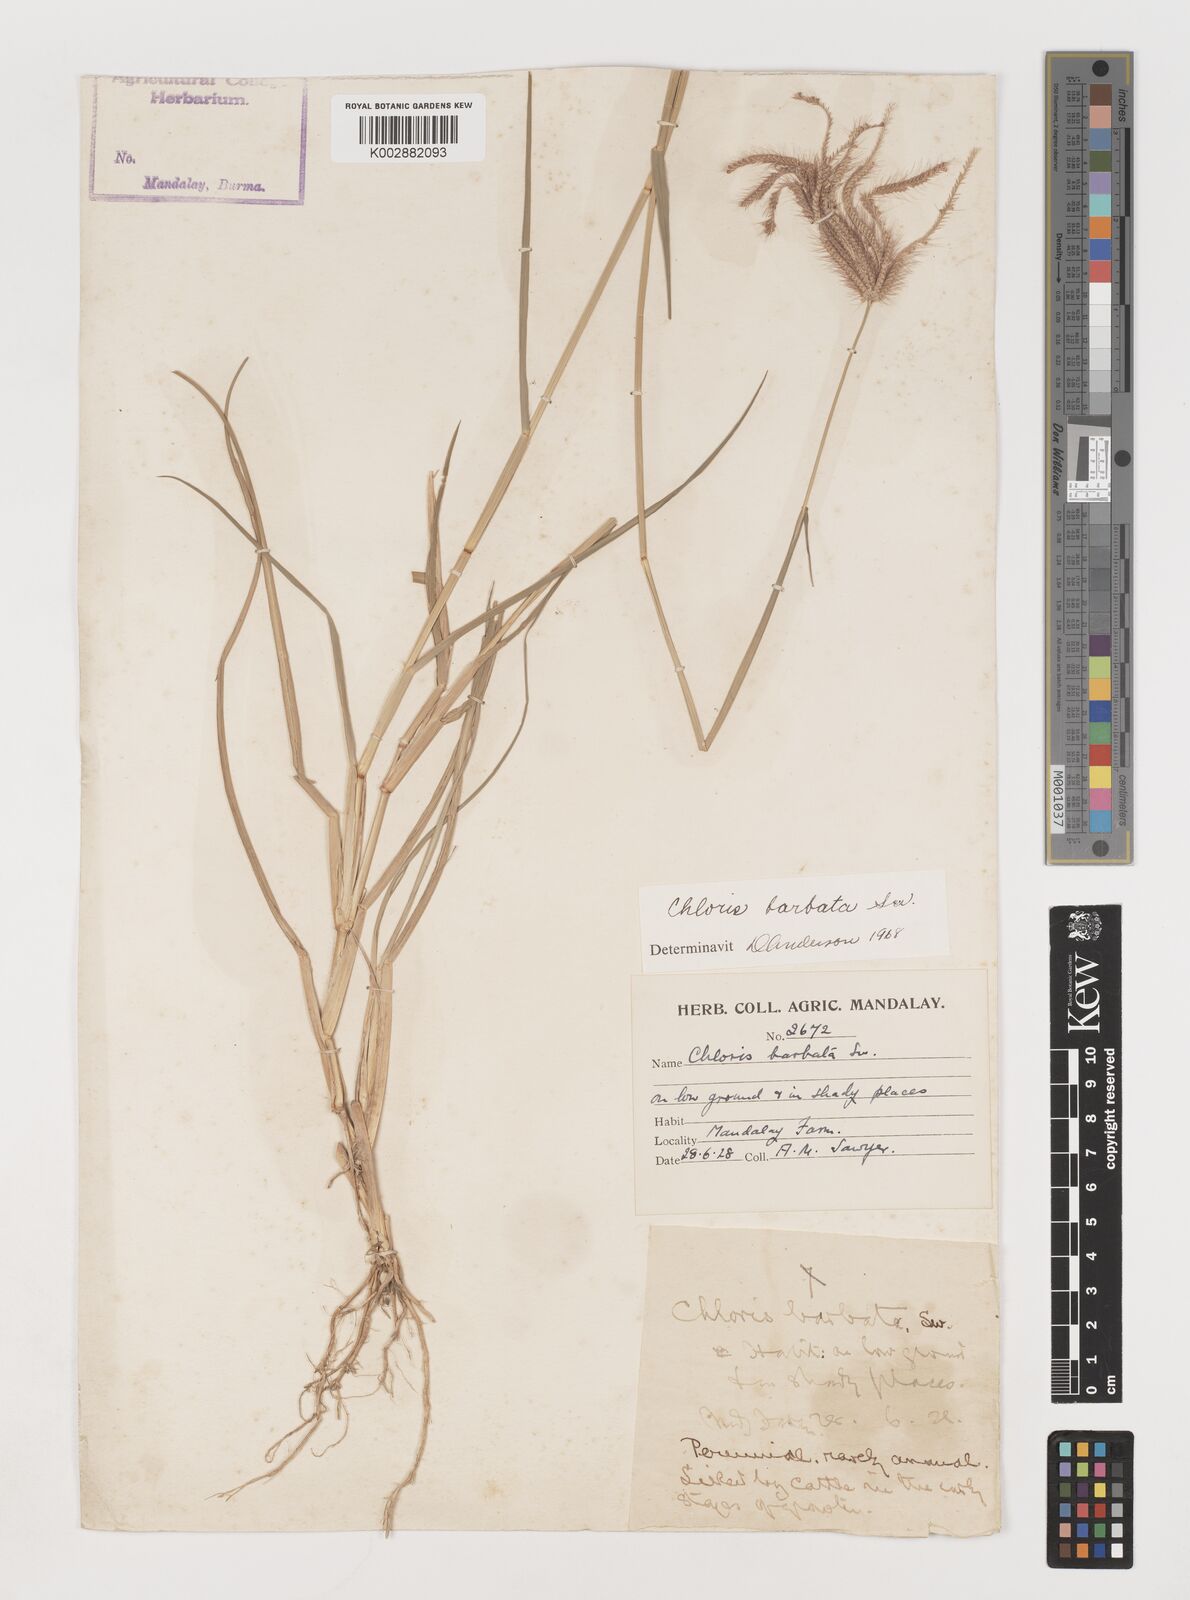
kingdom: Plantae
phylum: Tracheophyta
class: Liliopsida
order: Poales
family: Poaceae
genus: Chloris
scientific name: Chloris barbata
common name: Swollen fingergrass
